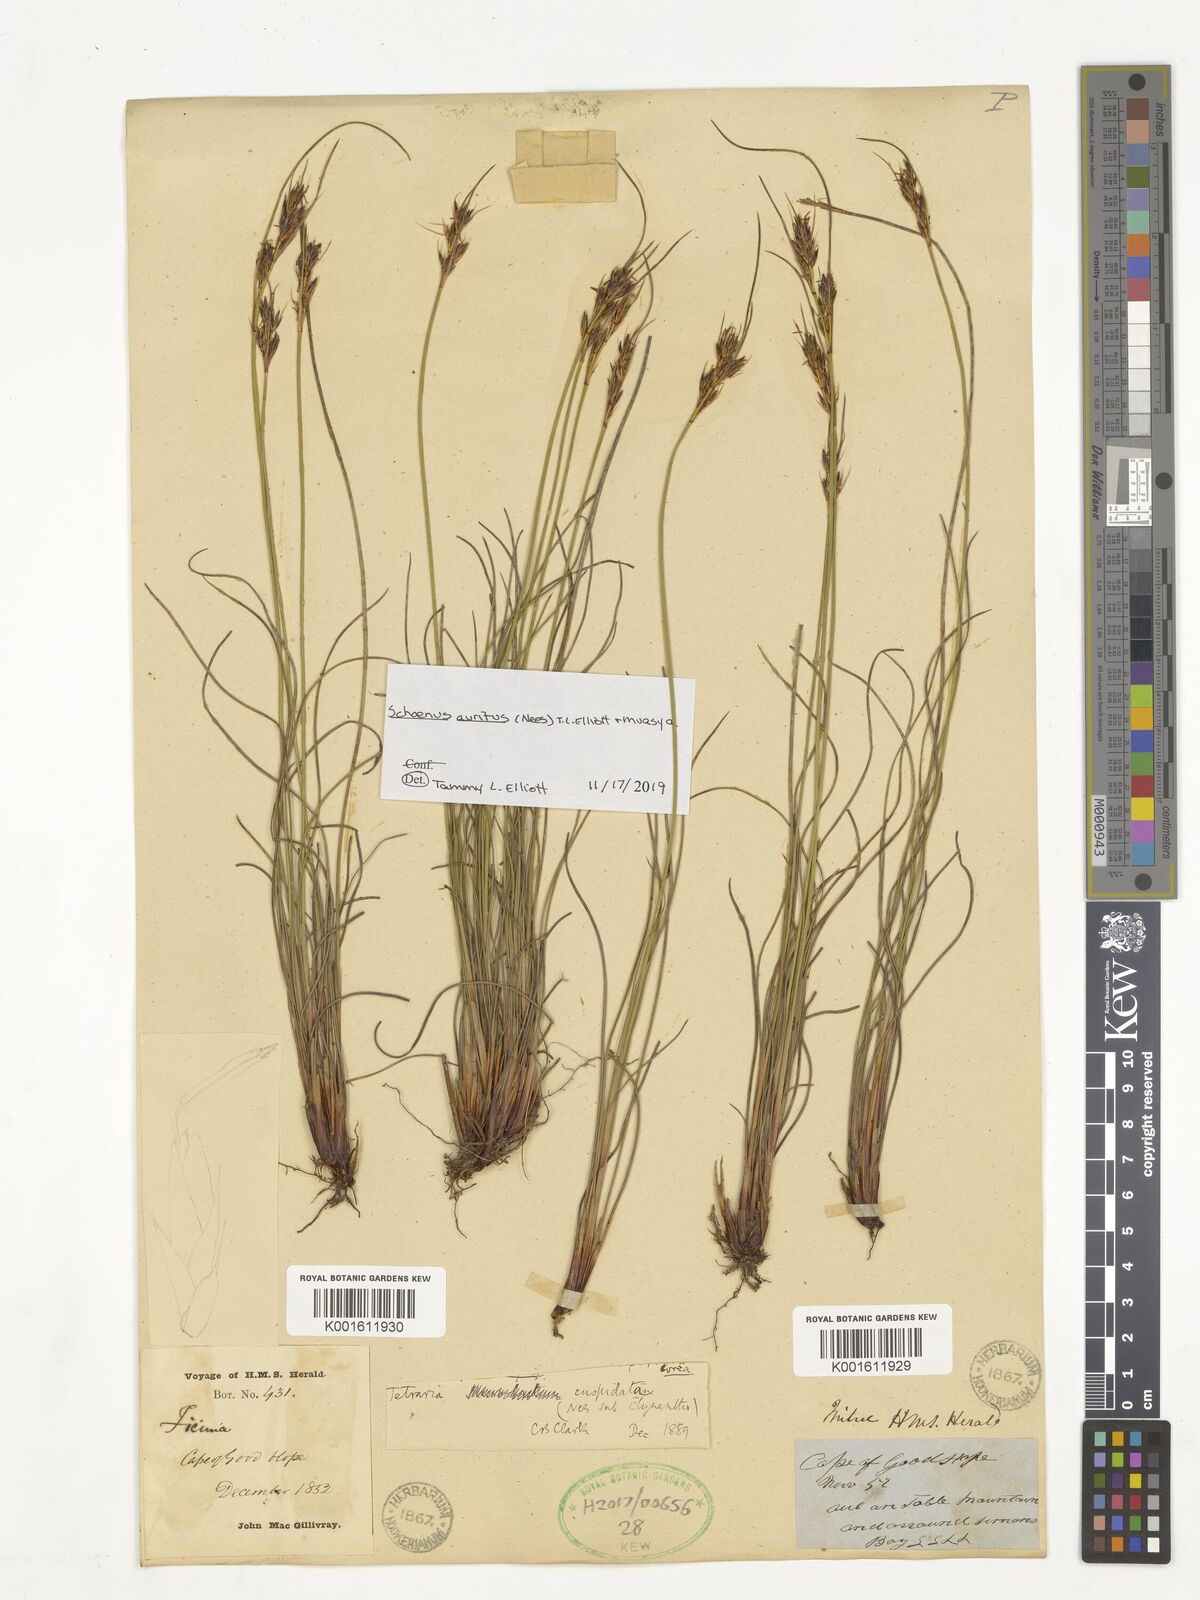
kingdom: Plantae
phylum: Tracheophyta
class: Liliopsida
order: Poales
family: Cyperaceae
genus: Schoenus
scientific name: Schoenus auritus
